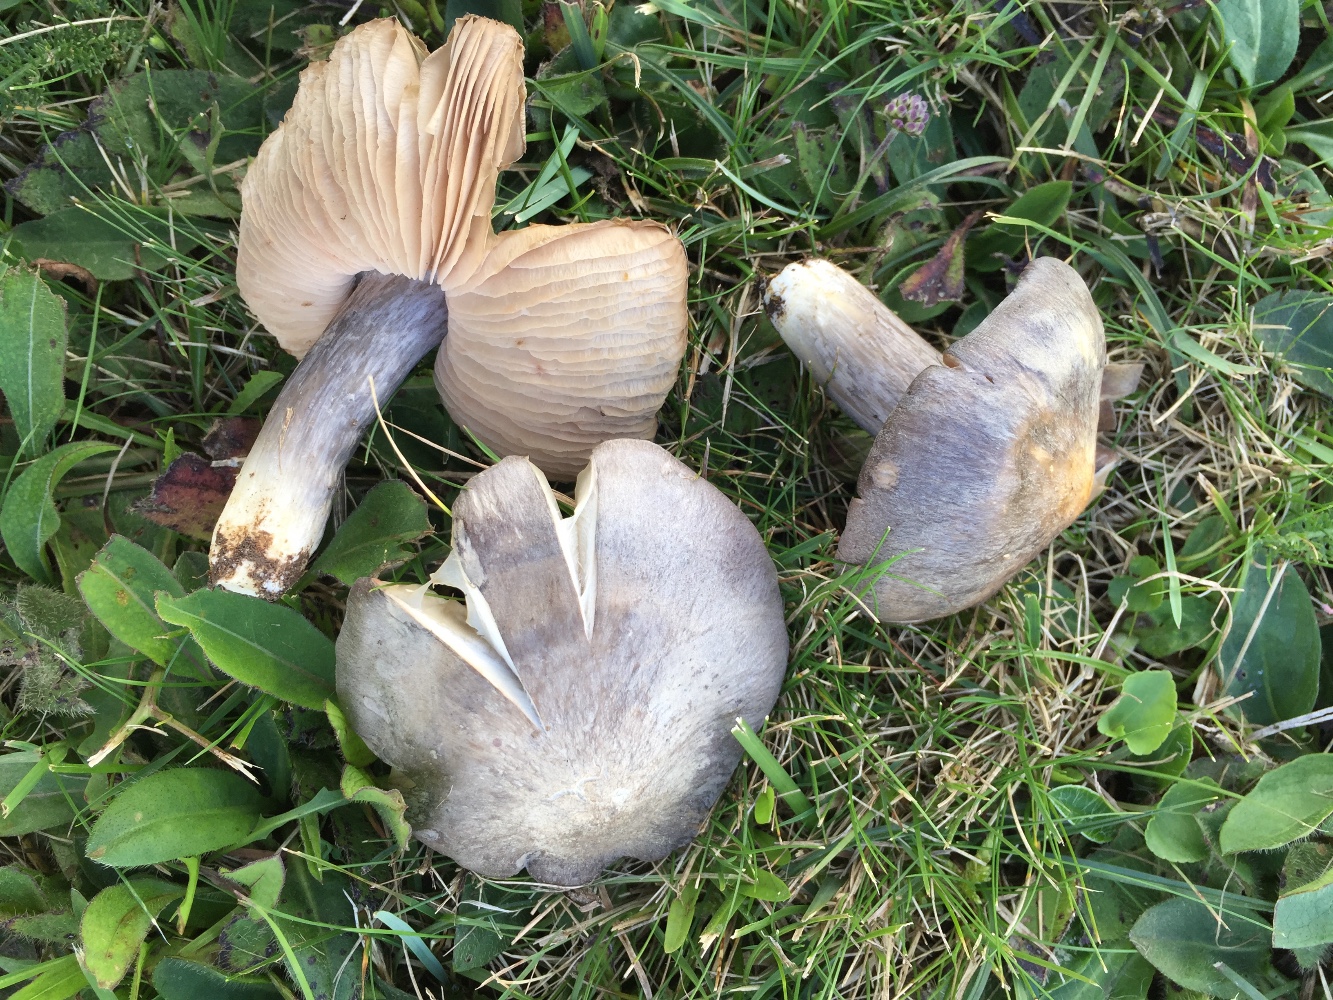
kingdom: Fungi
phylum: Basidiomycota
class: Agaricomycetes
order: Agaricales
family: Entolomataceae
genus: Entoloma
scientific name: Entoloma
